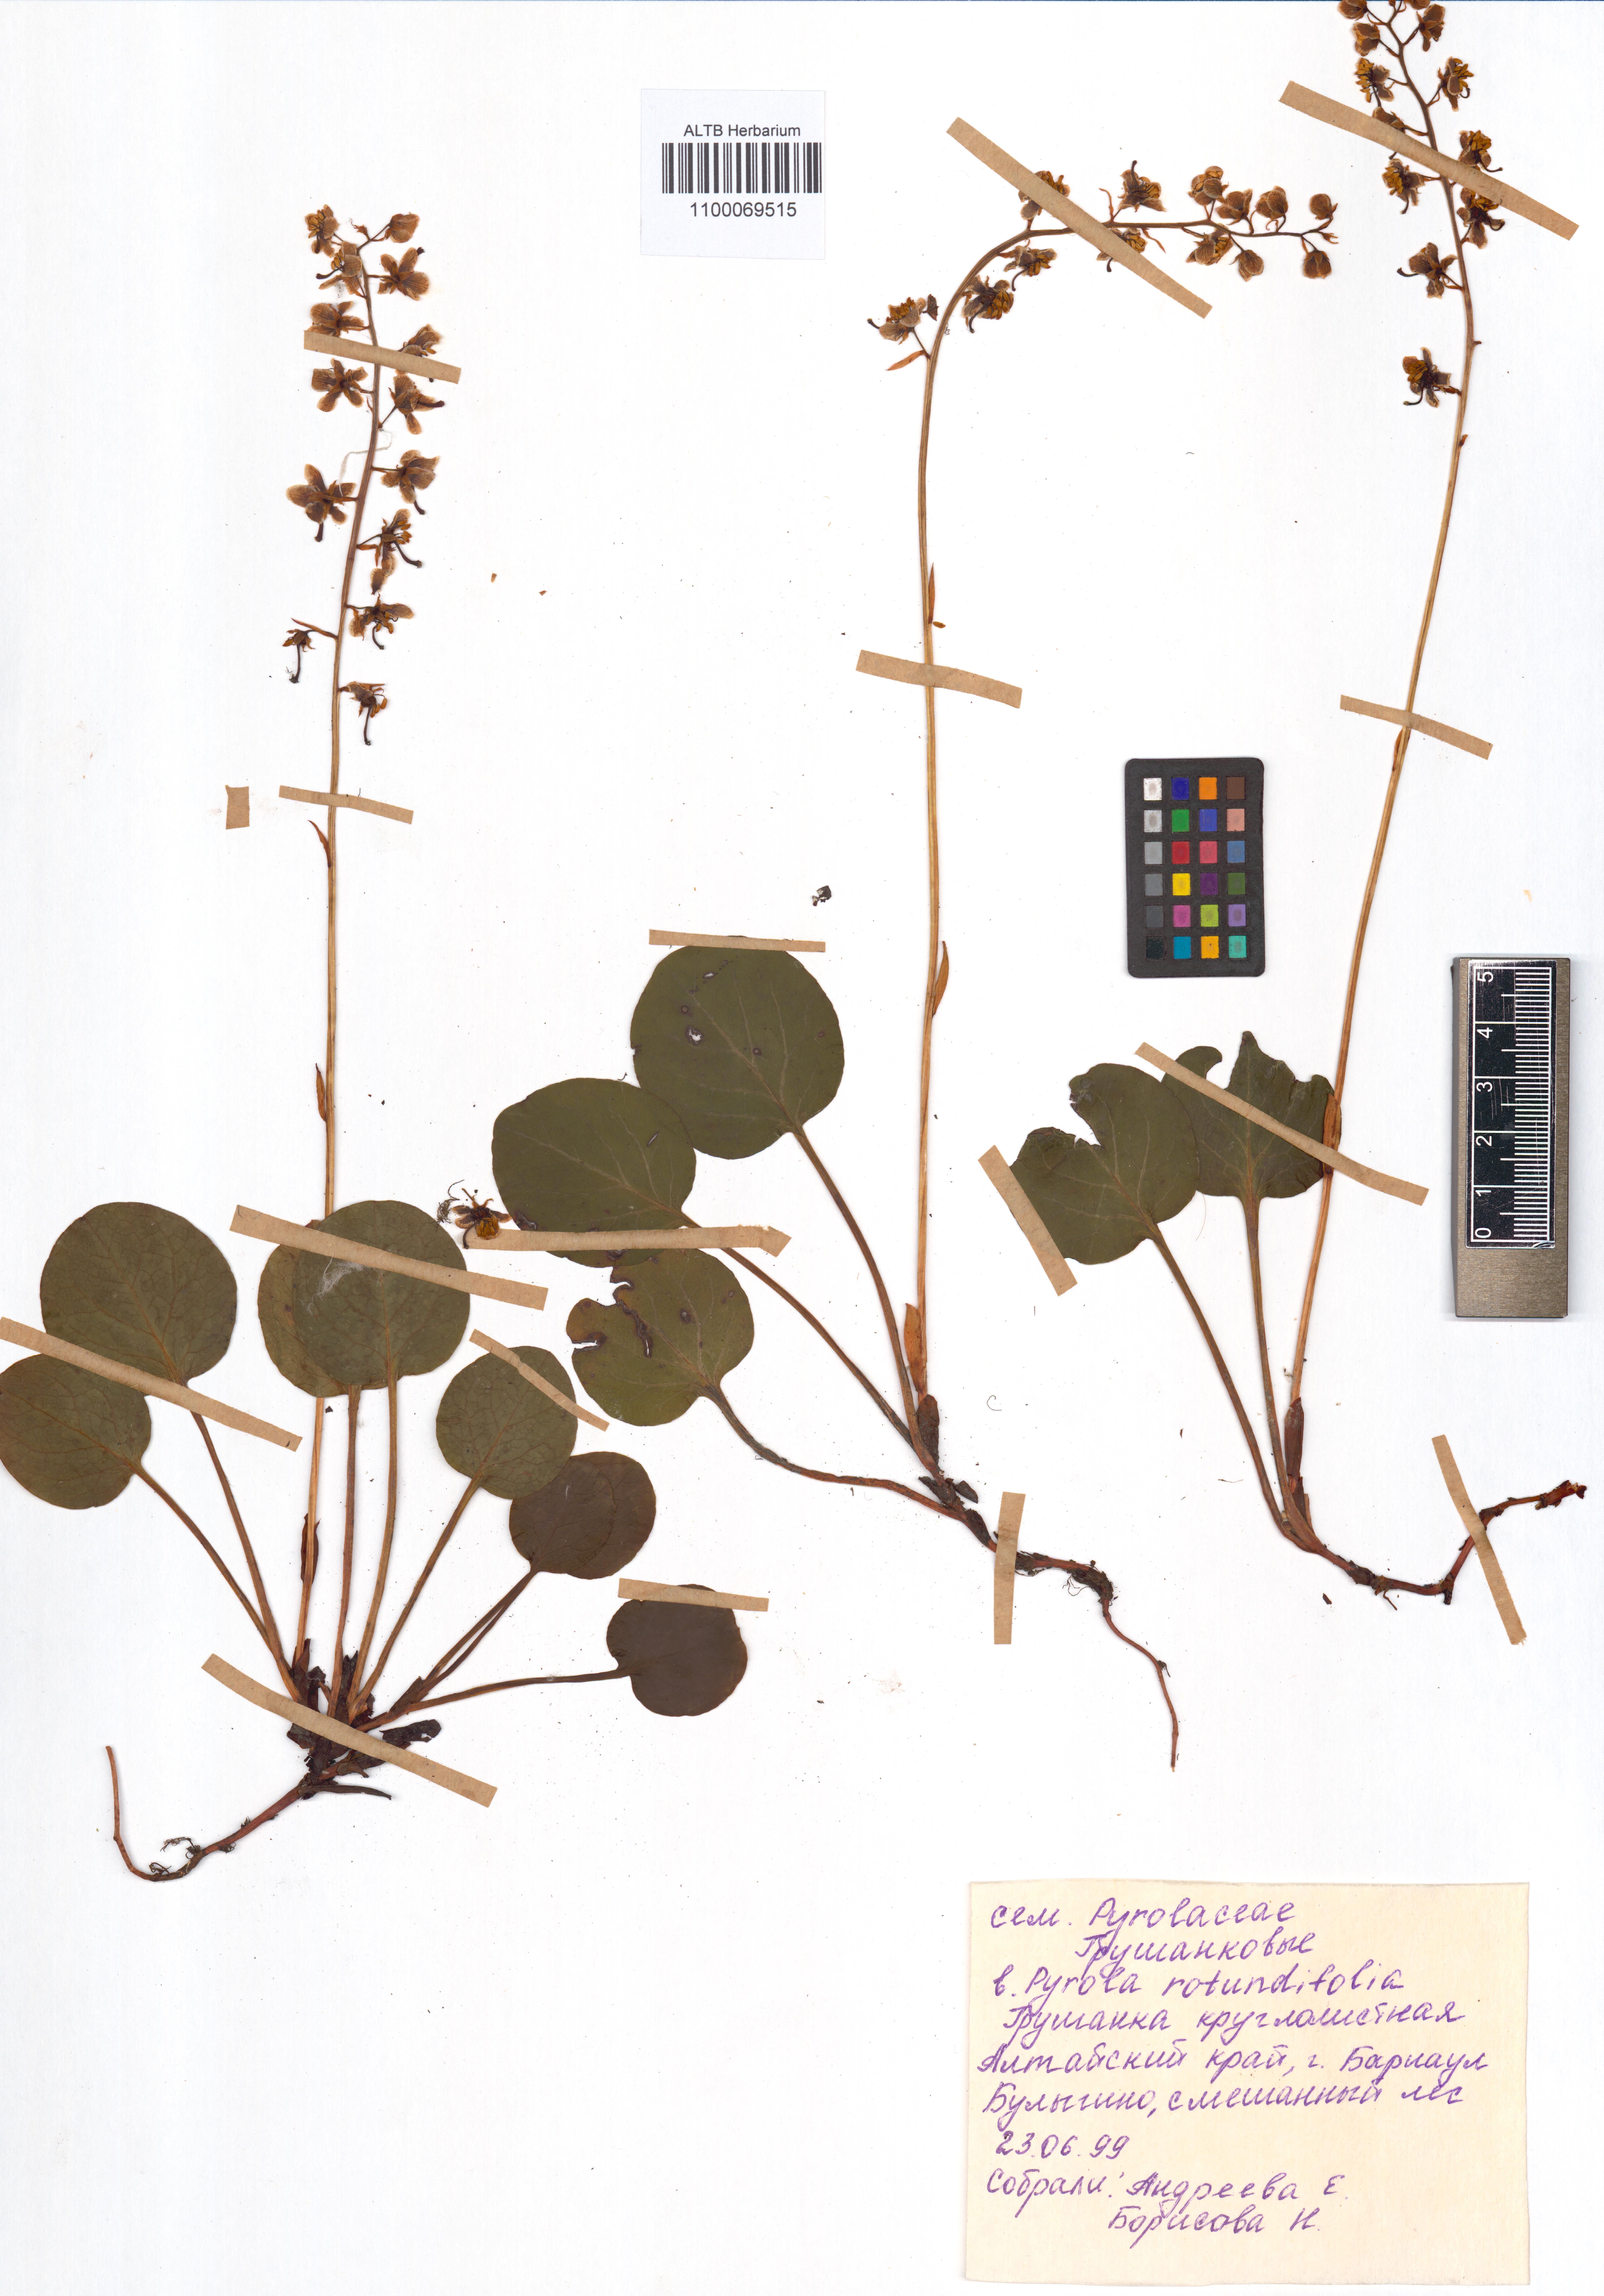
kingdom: Plantae
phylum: Tracheophyta
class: Magnoliopsida
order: Ericales
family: Ericaceae
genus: Pyrola
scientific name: Pyrola rotundifolia
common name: Round-leaved wintergreen
